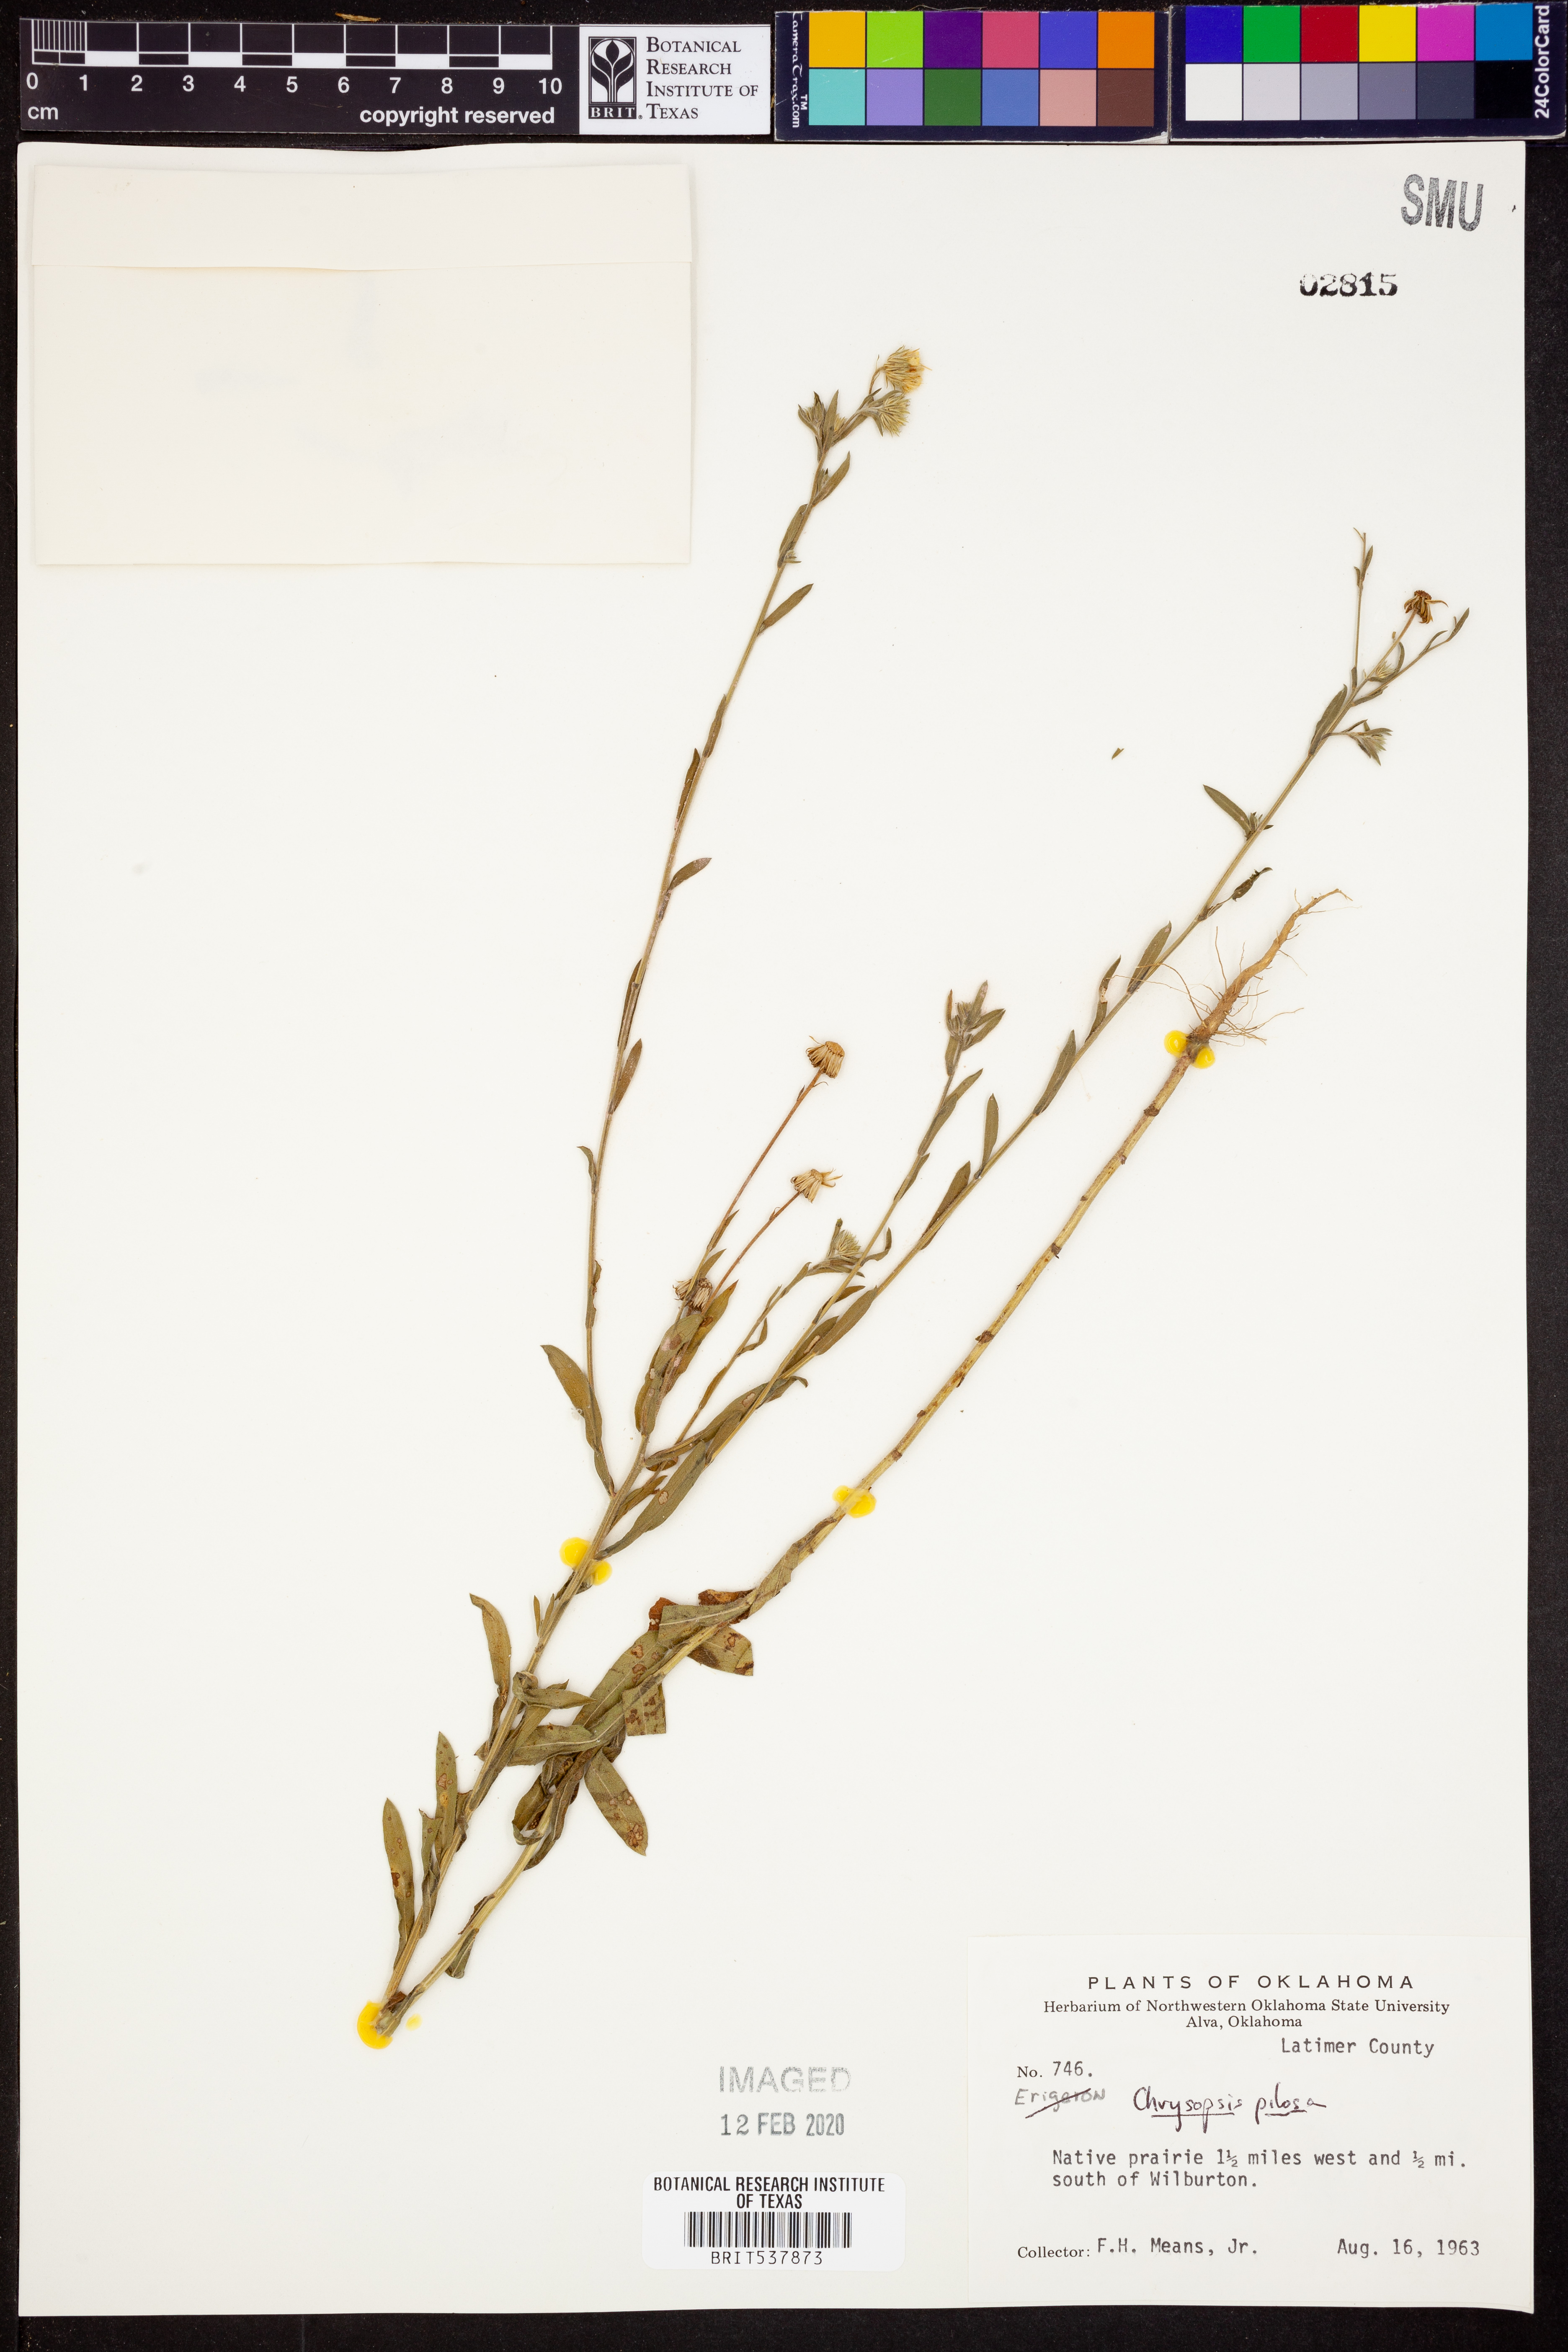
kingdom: Plantae
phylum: Tracheophyta
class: Magnoliopsida
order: Asterales
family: Asteraceae
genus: Bradburia
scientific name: Bradburia pilosa
